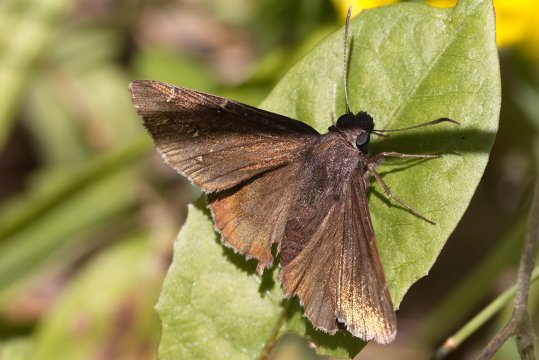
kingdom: Animalia
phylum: Arthropoda
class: Insecta
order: Lepidoptera
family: Hesperiidae
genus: Autochton
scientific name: Autochton
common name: Northern Cloudywing
